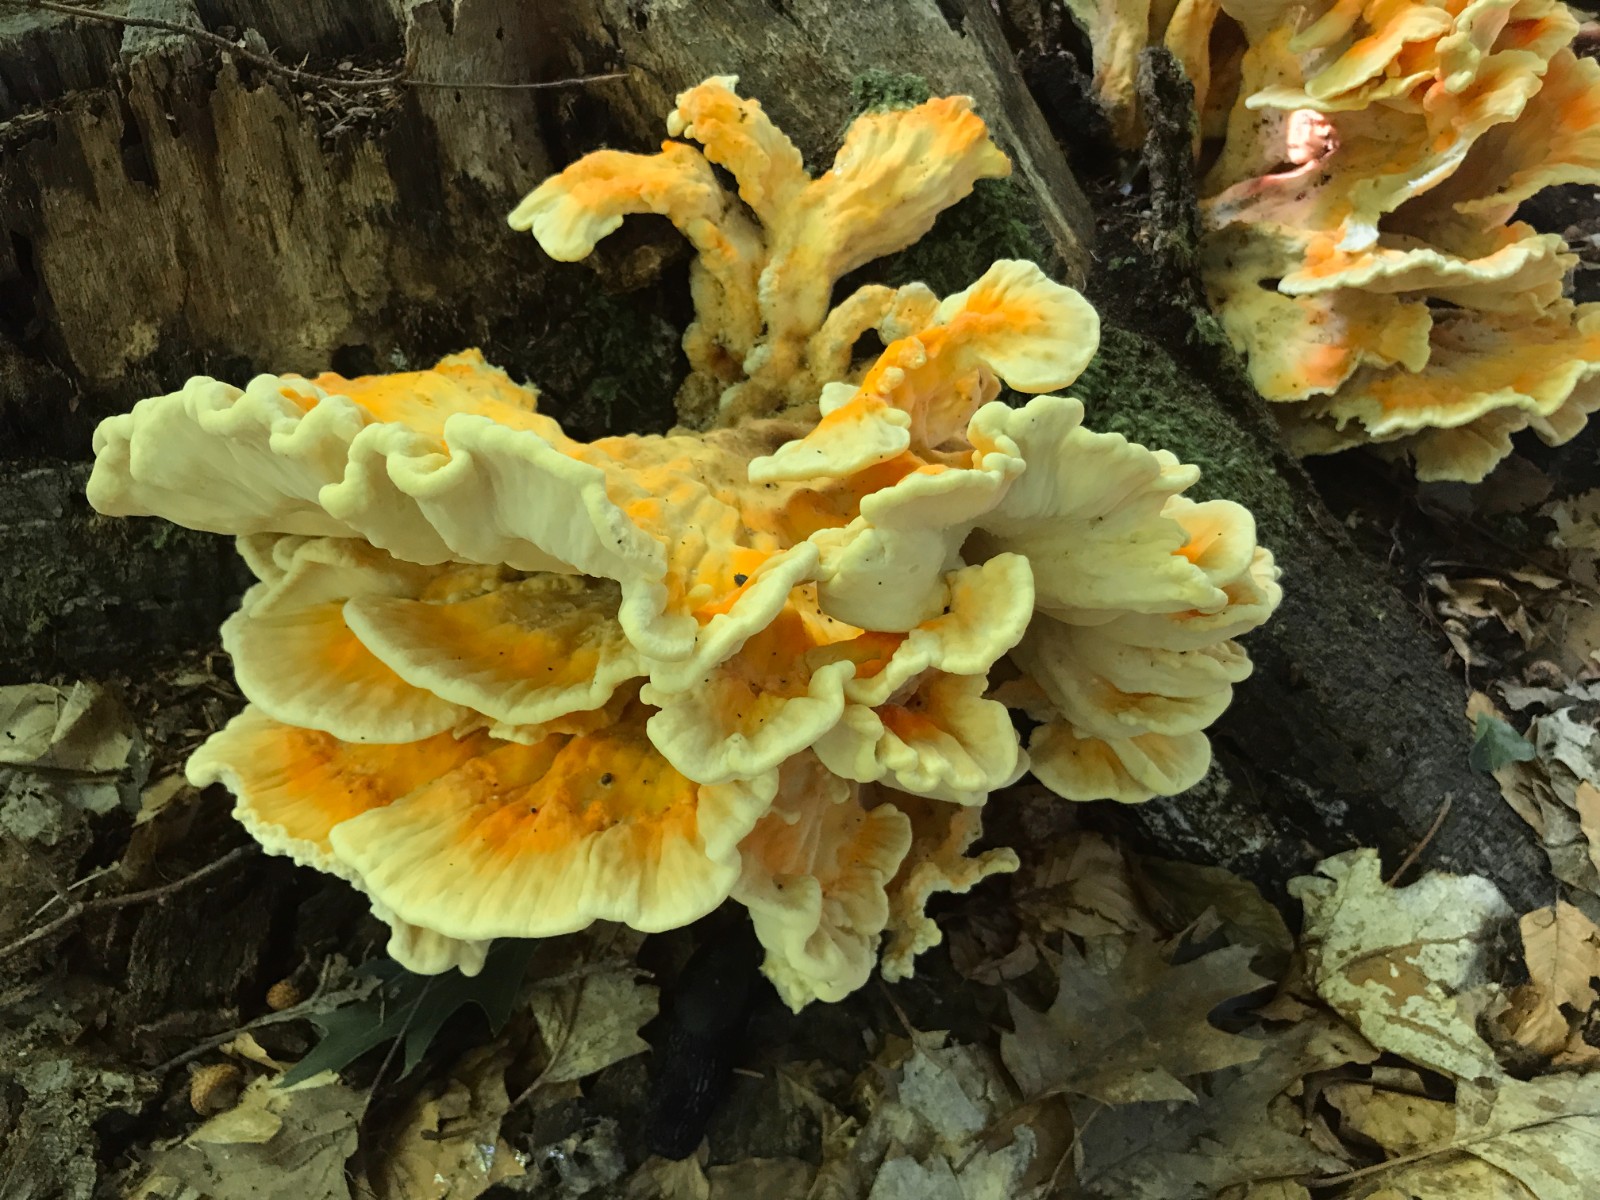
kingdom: Fungi
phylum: Basidiomycota
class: Agaricomycetes
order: Polyporales
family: Laetiporaceae
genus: Laetiporus
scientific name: Laetiporus sulphureus
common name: svovlporesvamp
